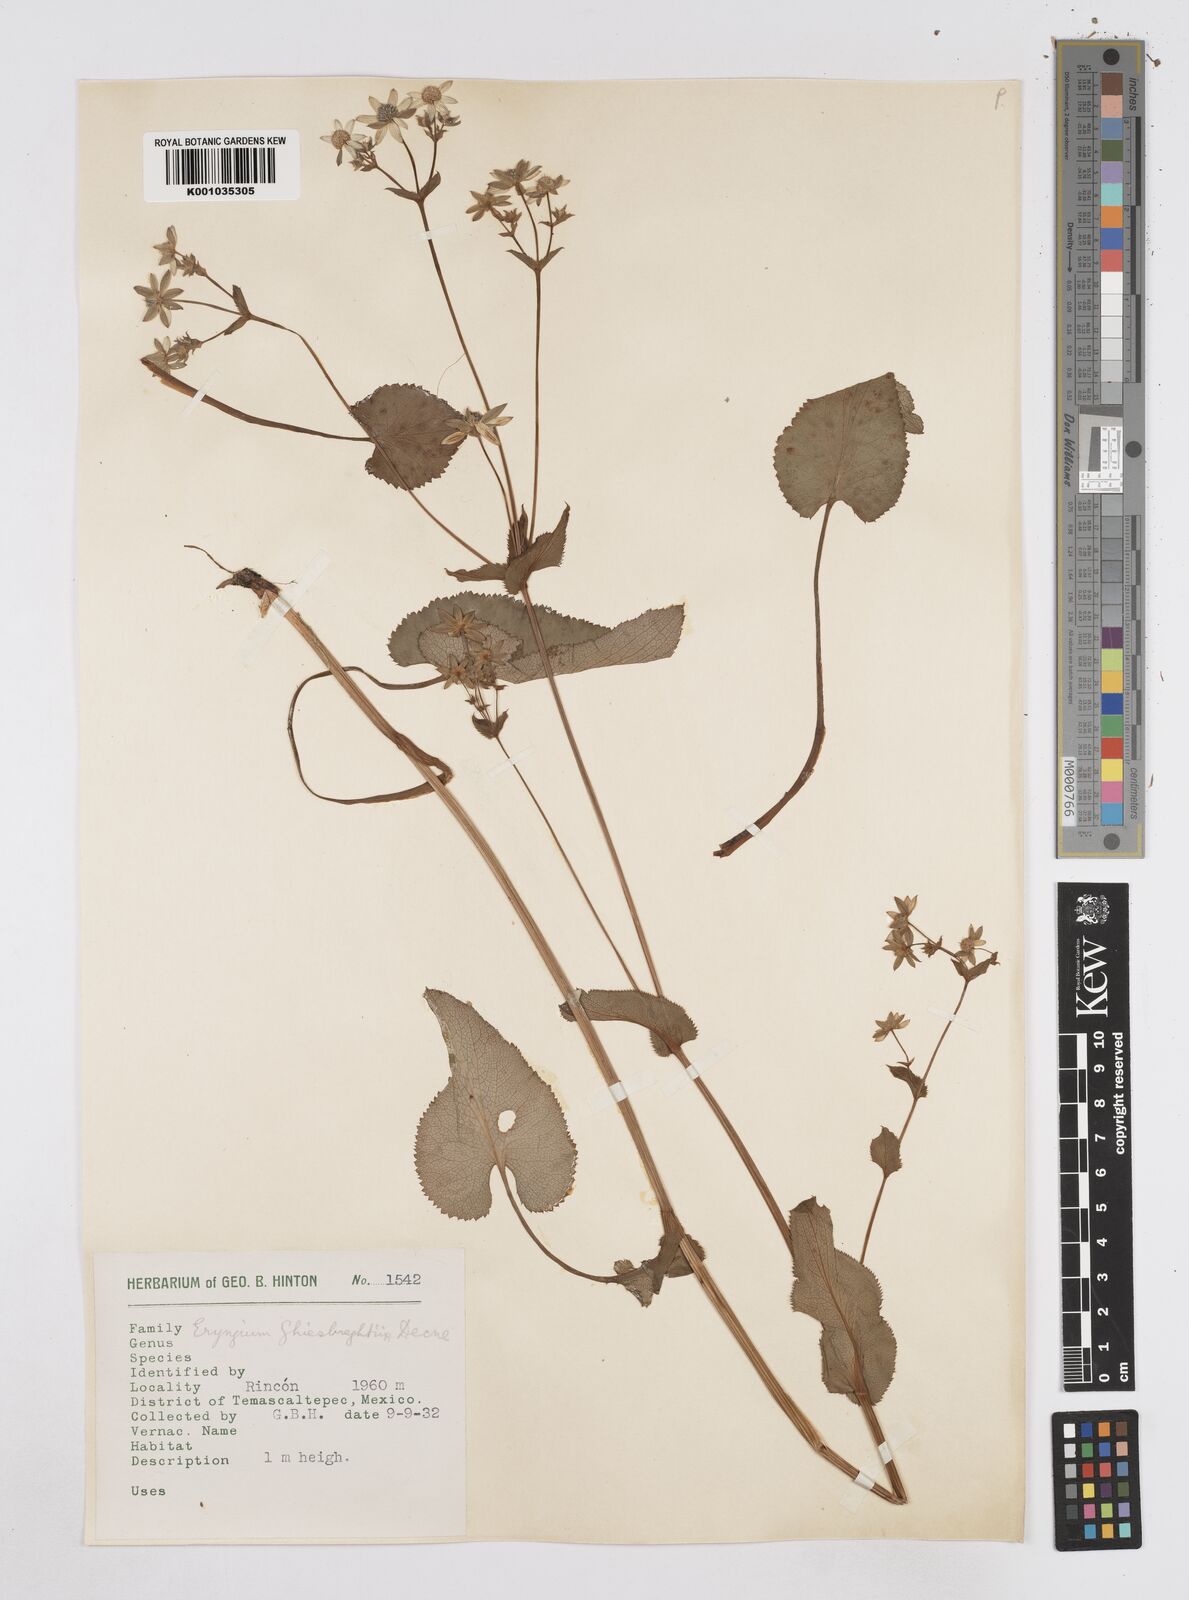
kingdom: Plantae
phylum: Tracheophyta
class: Magnoliopsida
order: Apiales
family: Apiaceae
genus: Eryngium
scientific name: Eryngium ghiesbreghtii
